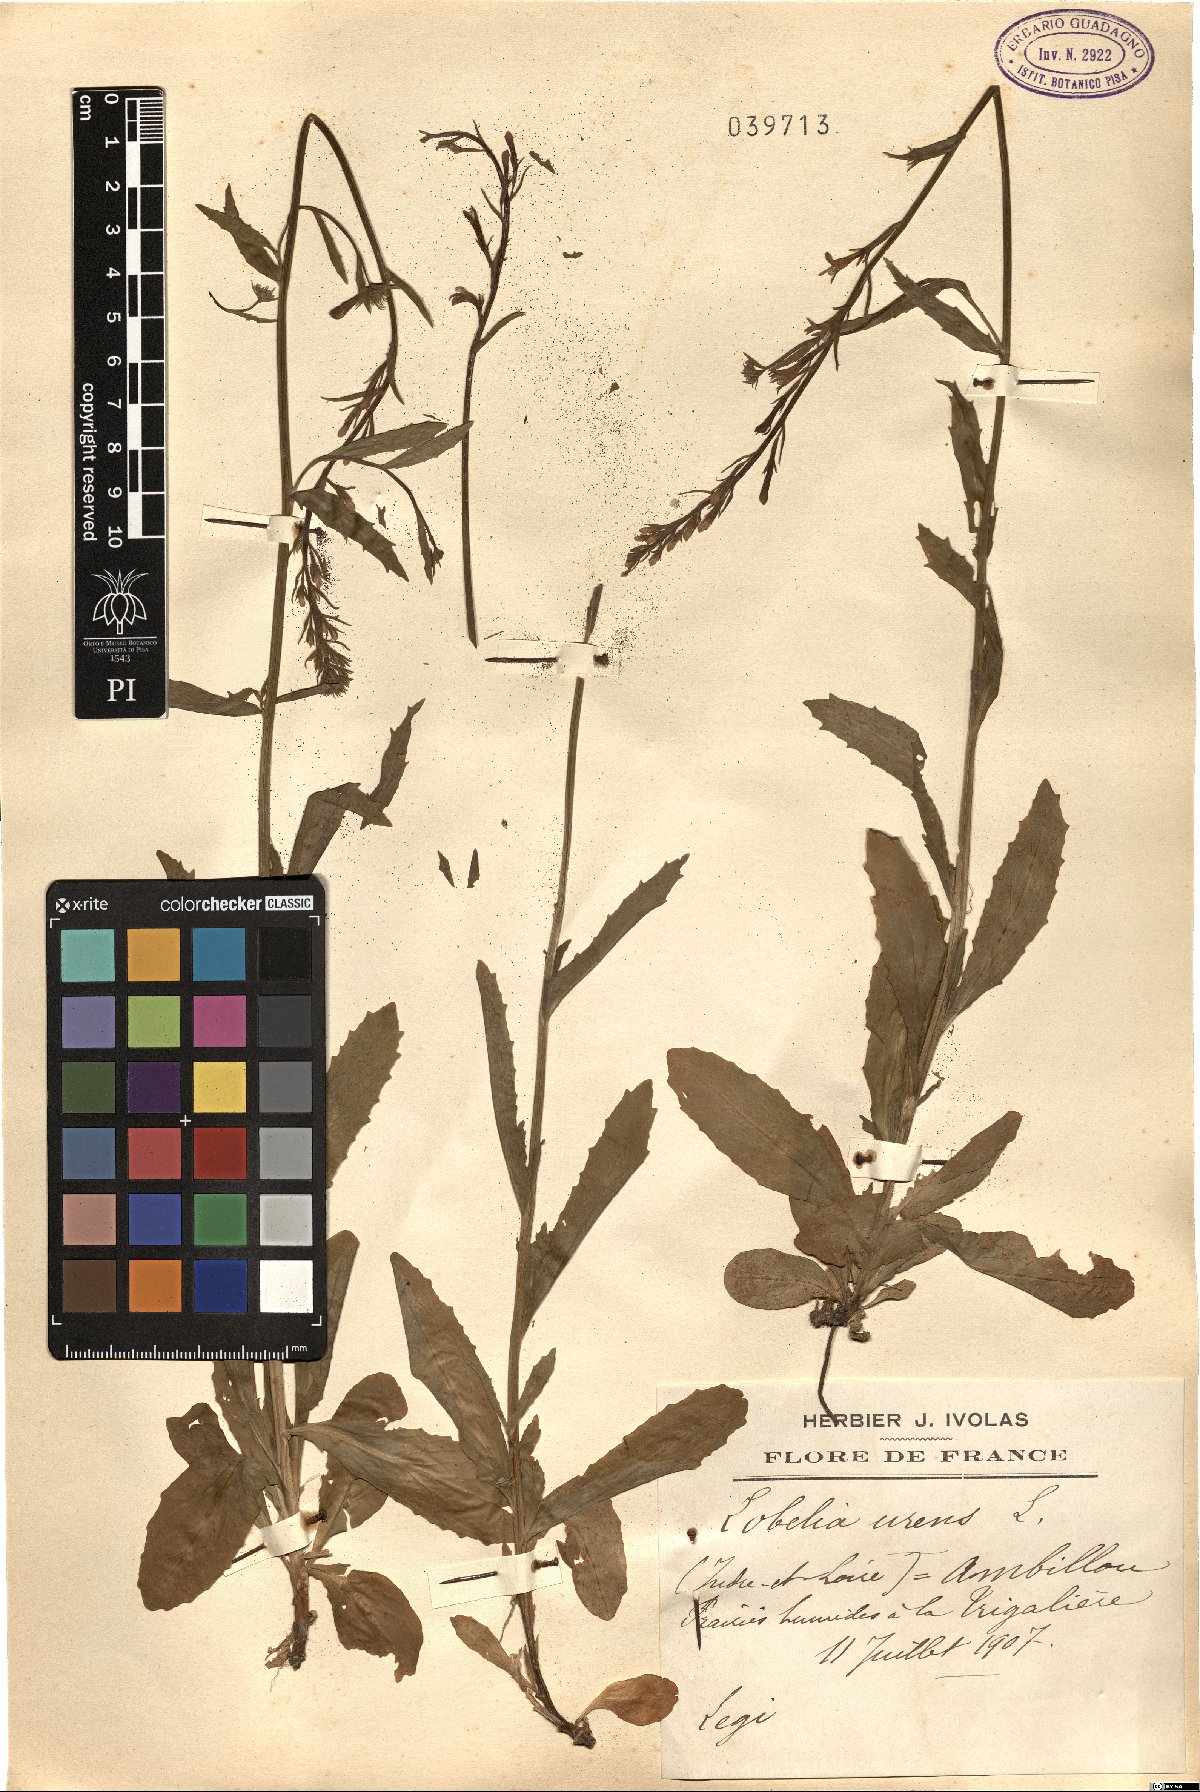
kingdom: Plantae
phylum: Tracheophyta
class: Magnoliopsida
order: Asterales
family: Campanulaceae
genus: Lobelia
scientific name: Lobelia urens
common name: Heath lobelia
